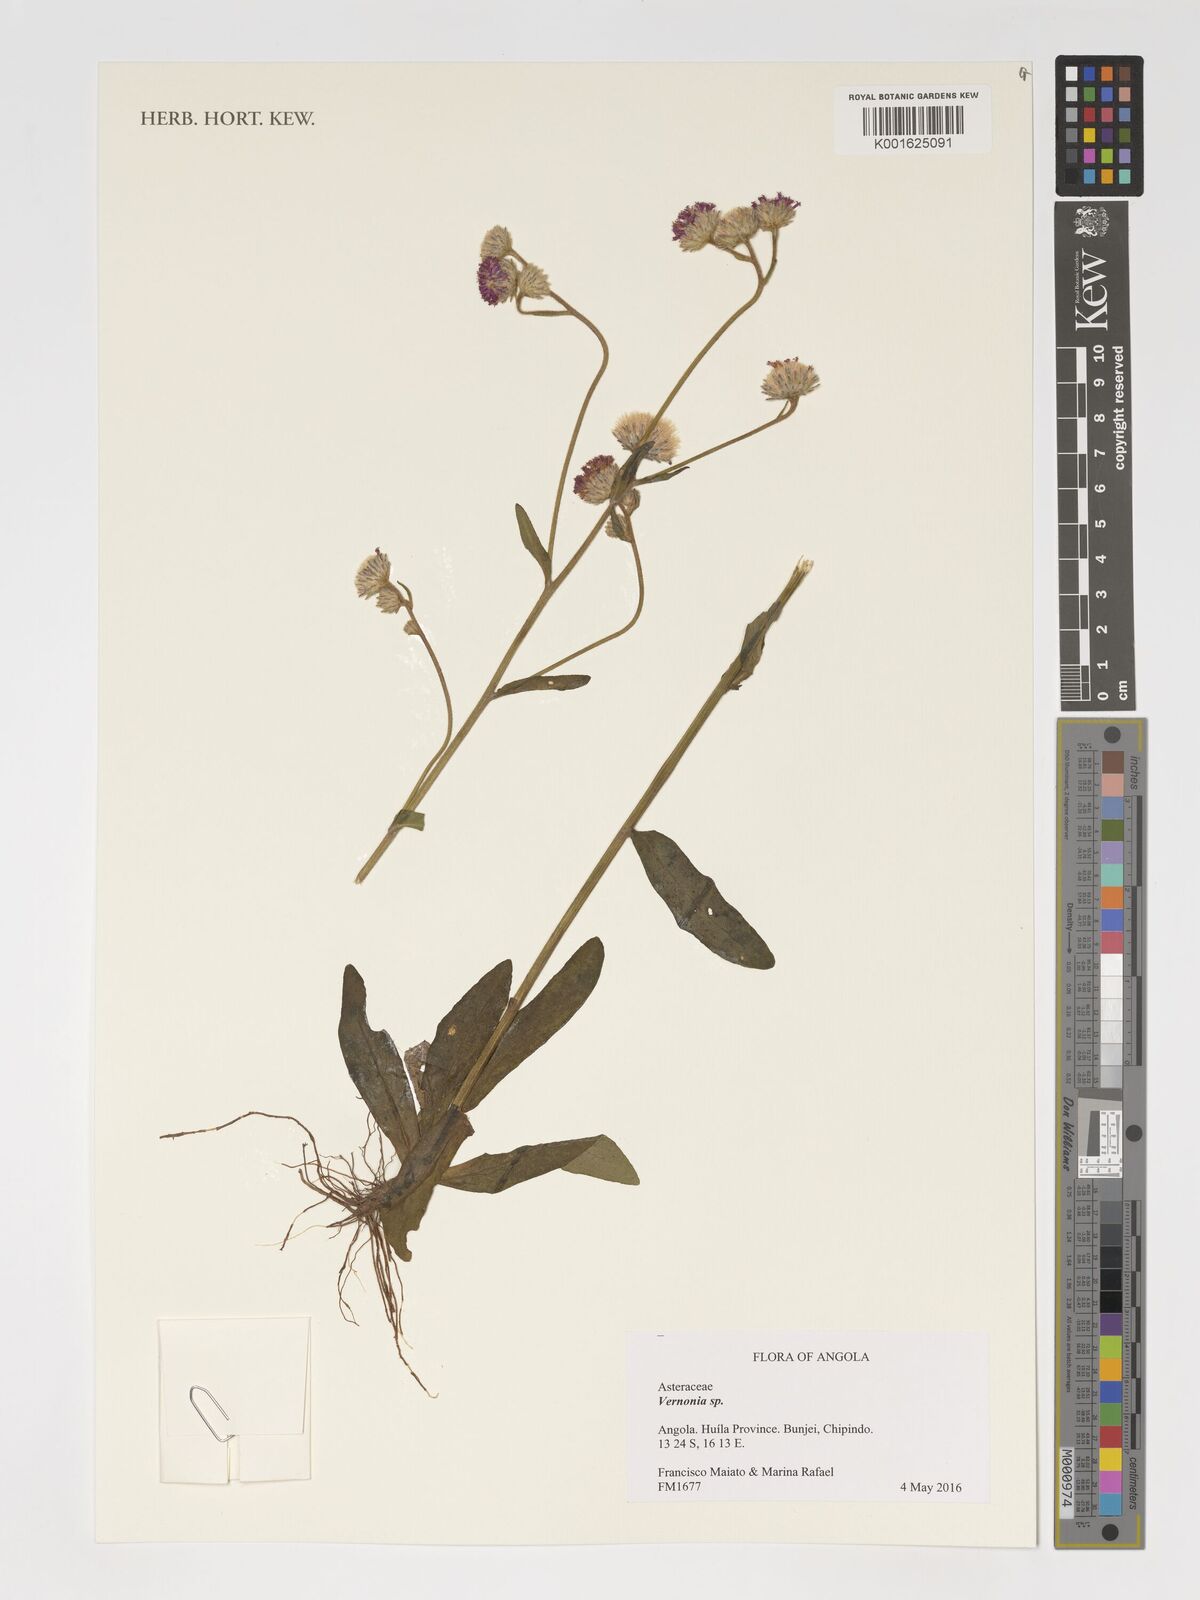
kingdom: Plantae
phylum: Tracheophyta
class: Magnoliopsida
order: Asterales
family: Asteraceae
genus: Vernonia
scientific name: Vernonia
